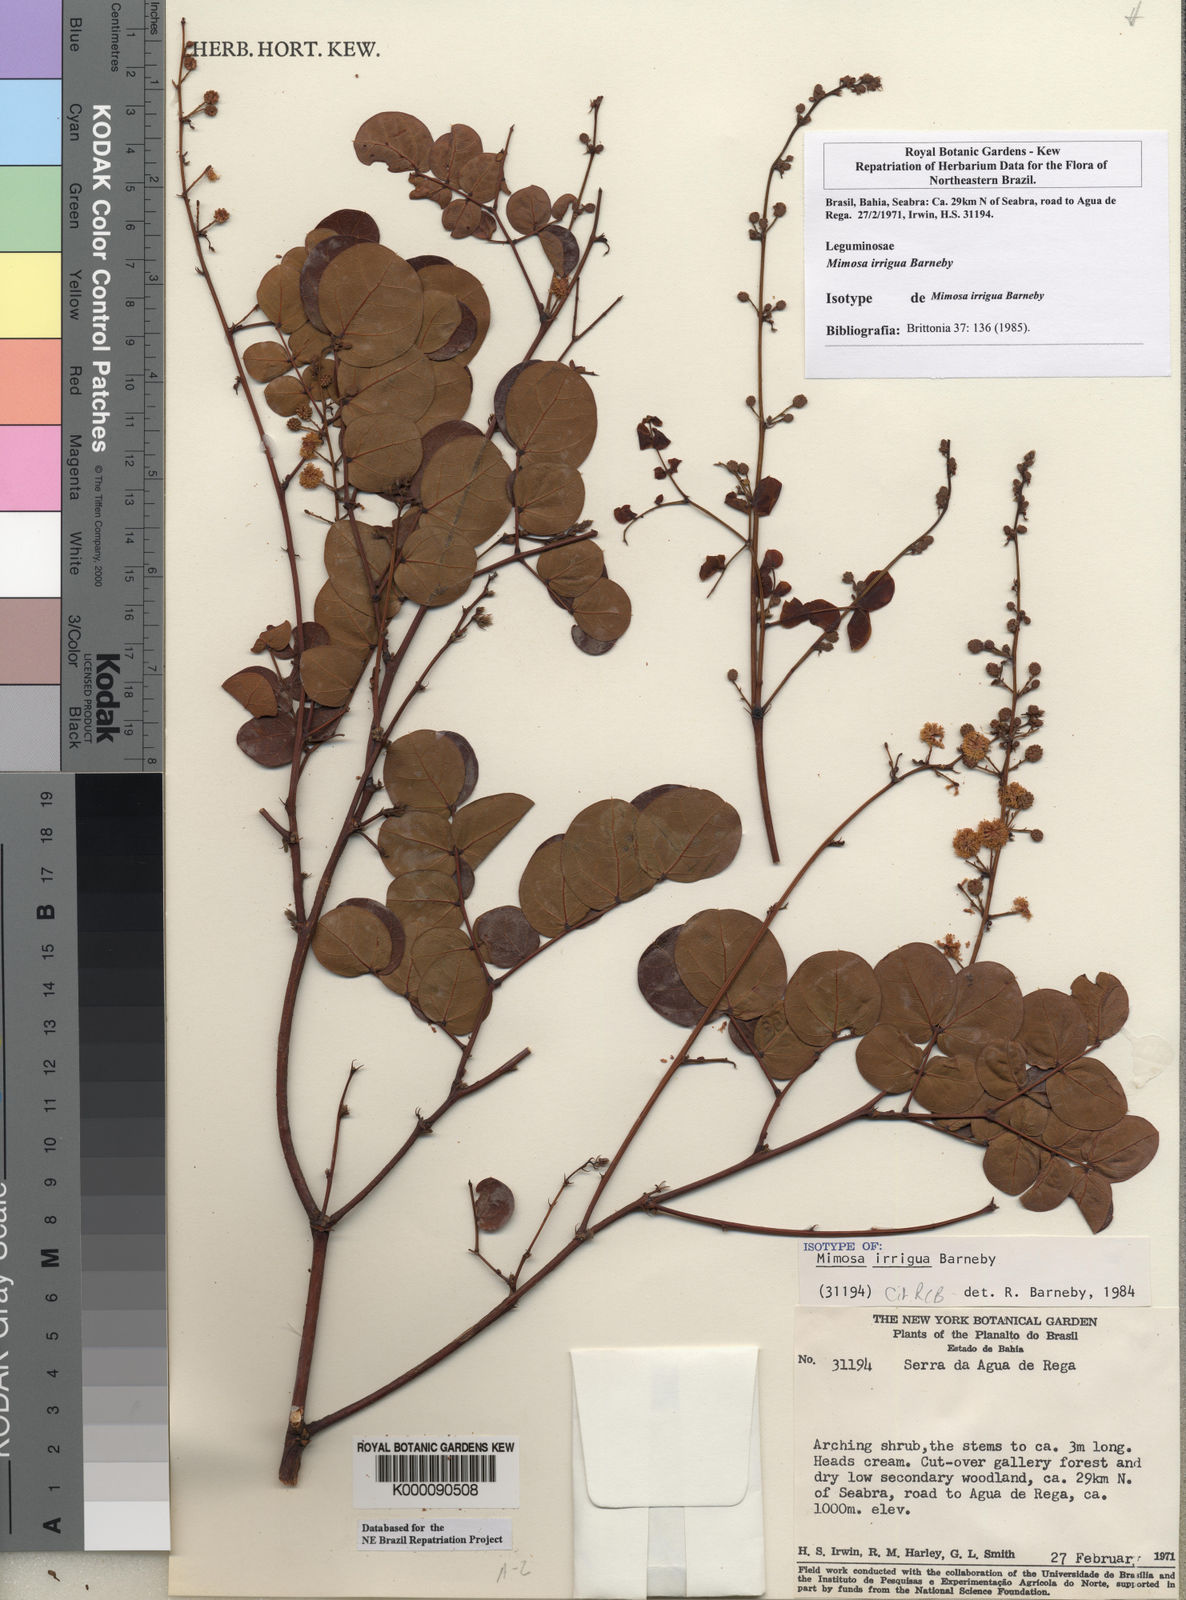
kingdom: Plantae
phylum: Tracheophyta
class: Magnoliopsida
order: Fabales
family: Fabaceae
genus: Mimosa
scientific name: Mimosa irrigua
